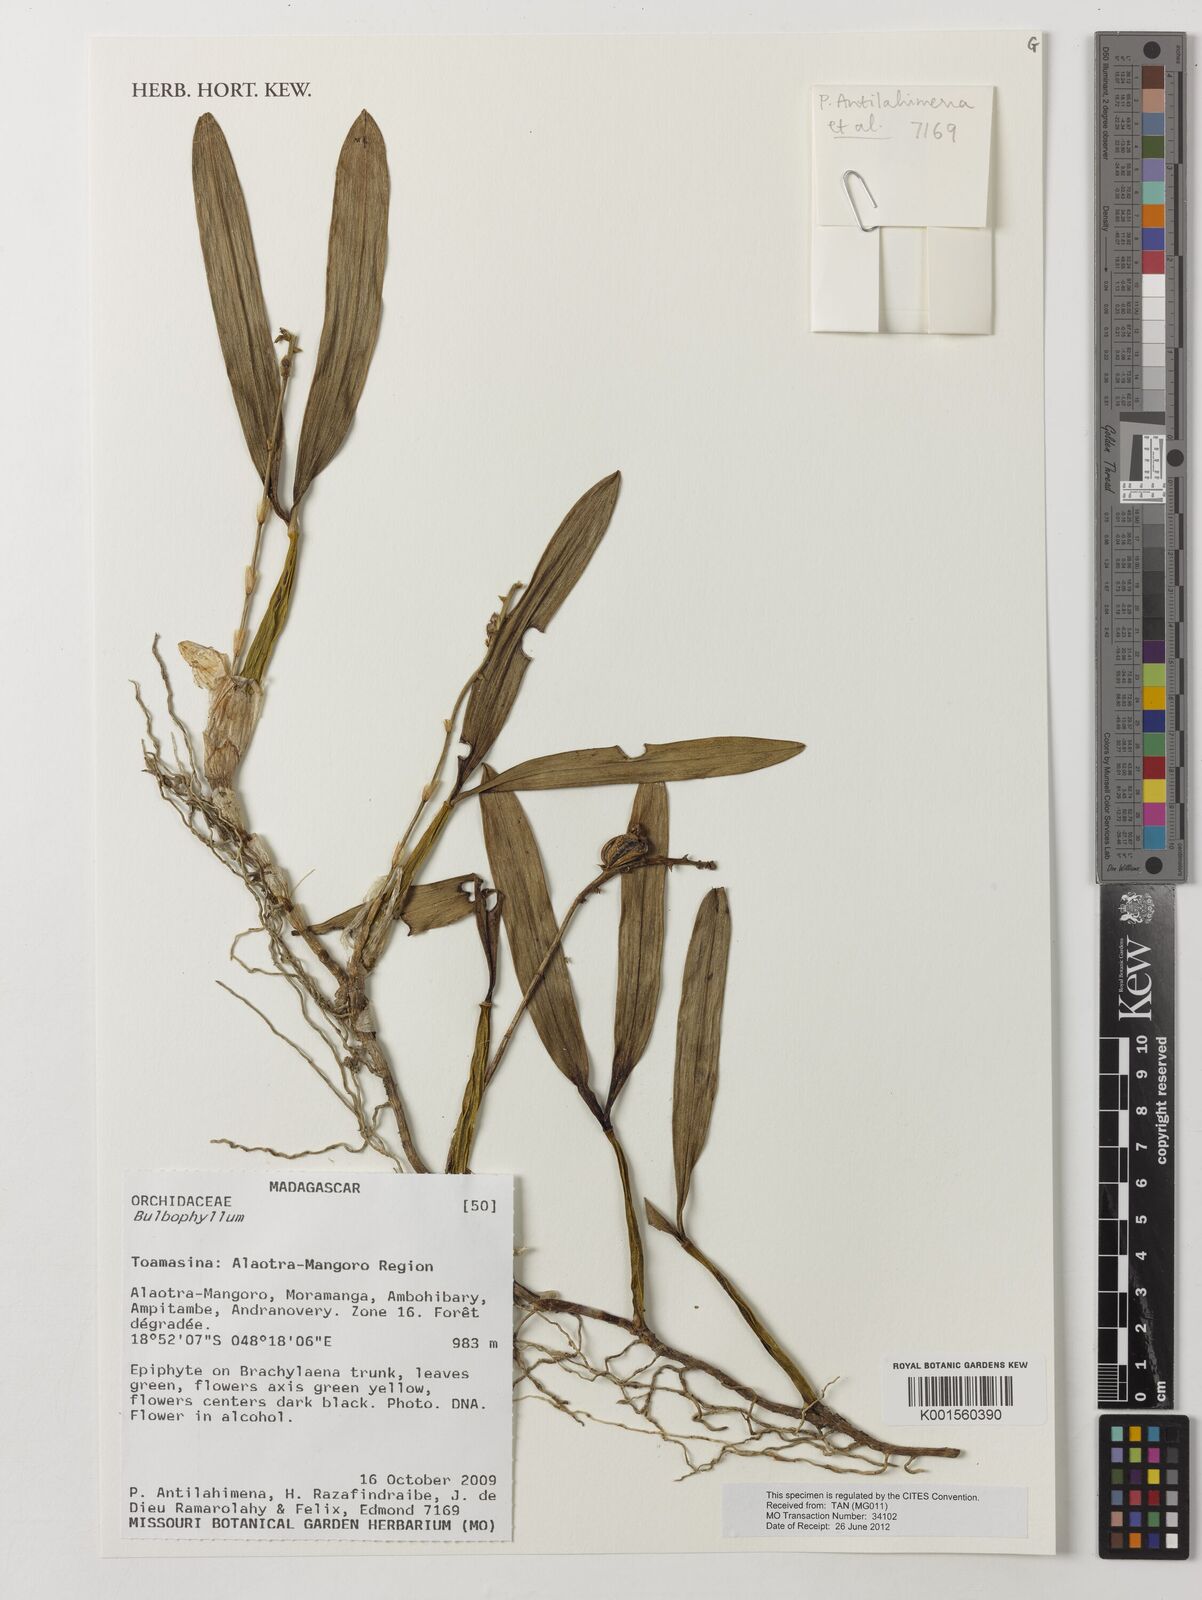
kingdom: Plantae
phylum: Tracheophyta
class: Liliopsida
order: Asparagales
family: Orchidaceae
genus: Bulbophyllum
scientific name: Bulbophyllum
